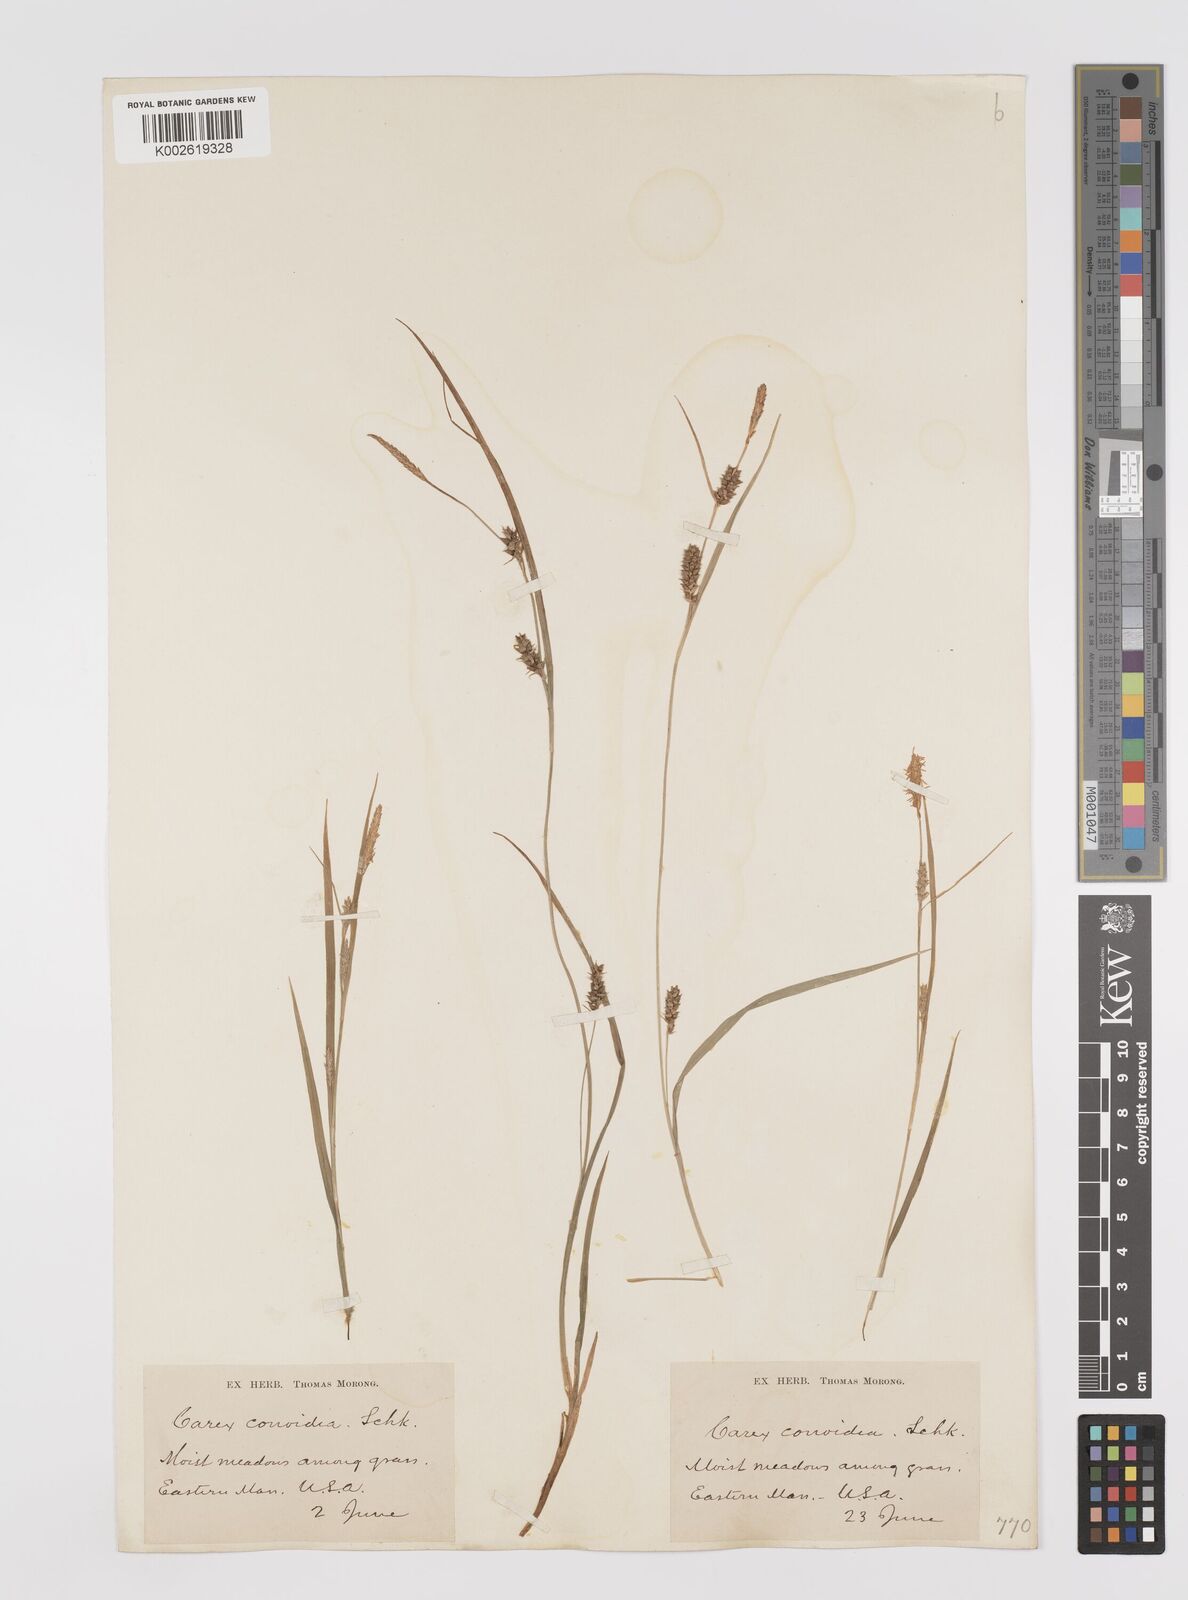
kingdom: Plantae
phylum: Tracheophyta
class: Liliopsida
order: Poales
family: Cyperaceae
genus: Carex
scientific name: Carex conoidea
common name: Cone shaped sedge
